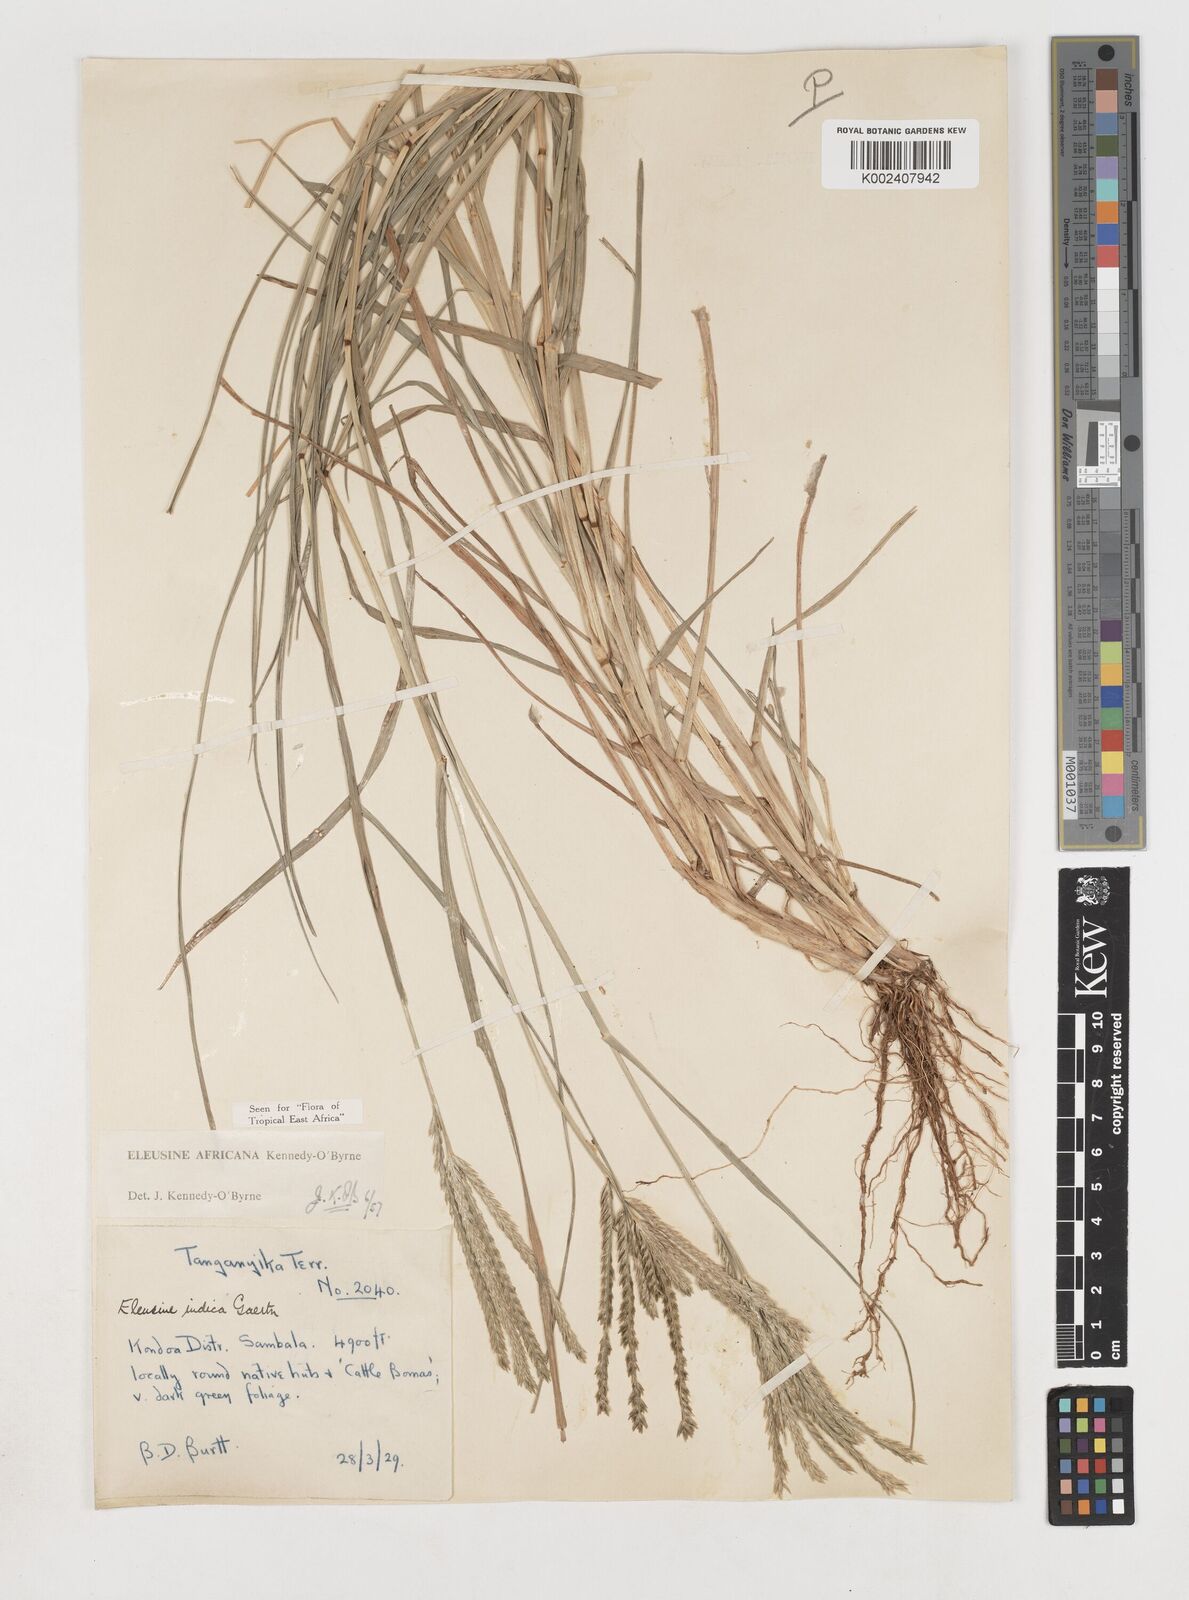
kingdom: Plantae
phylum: Tracheophyta
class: Liliopsida
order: Poales
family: Poaceae
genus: Eleusine
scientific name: Eleusine africana
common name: Wild african finger millet
